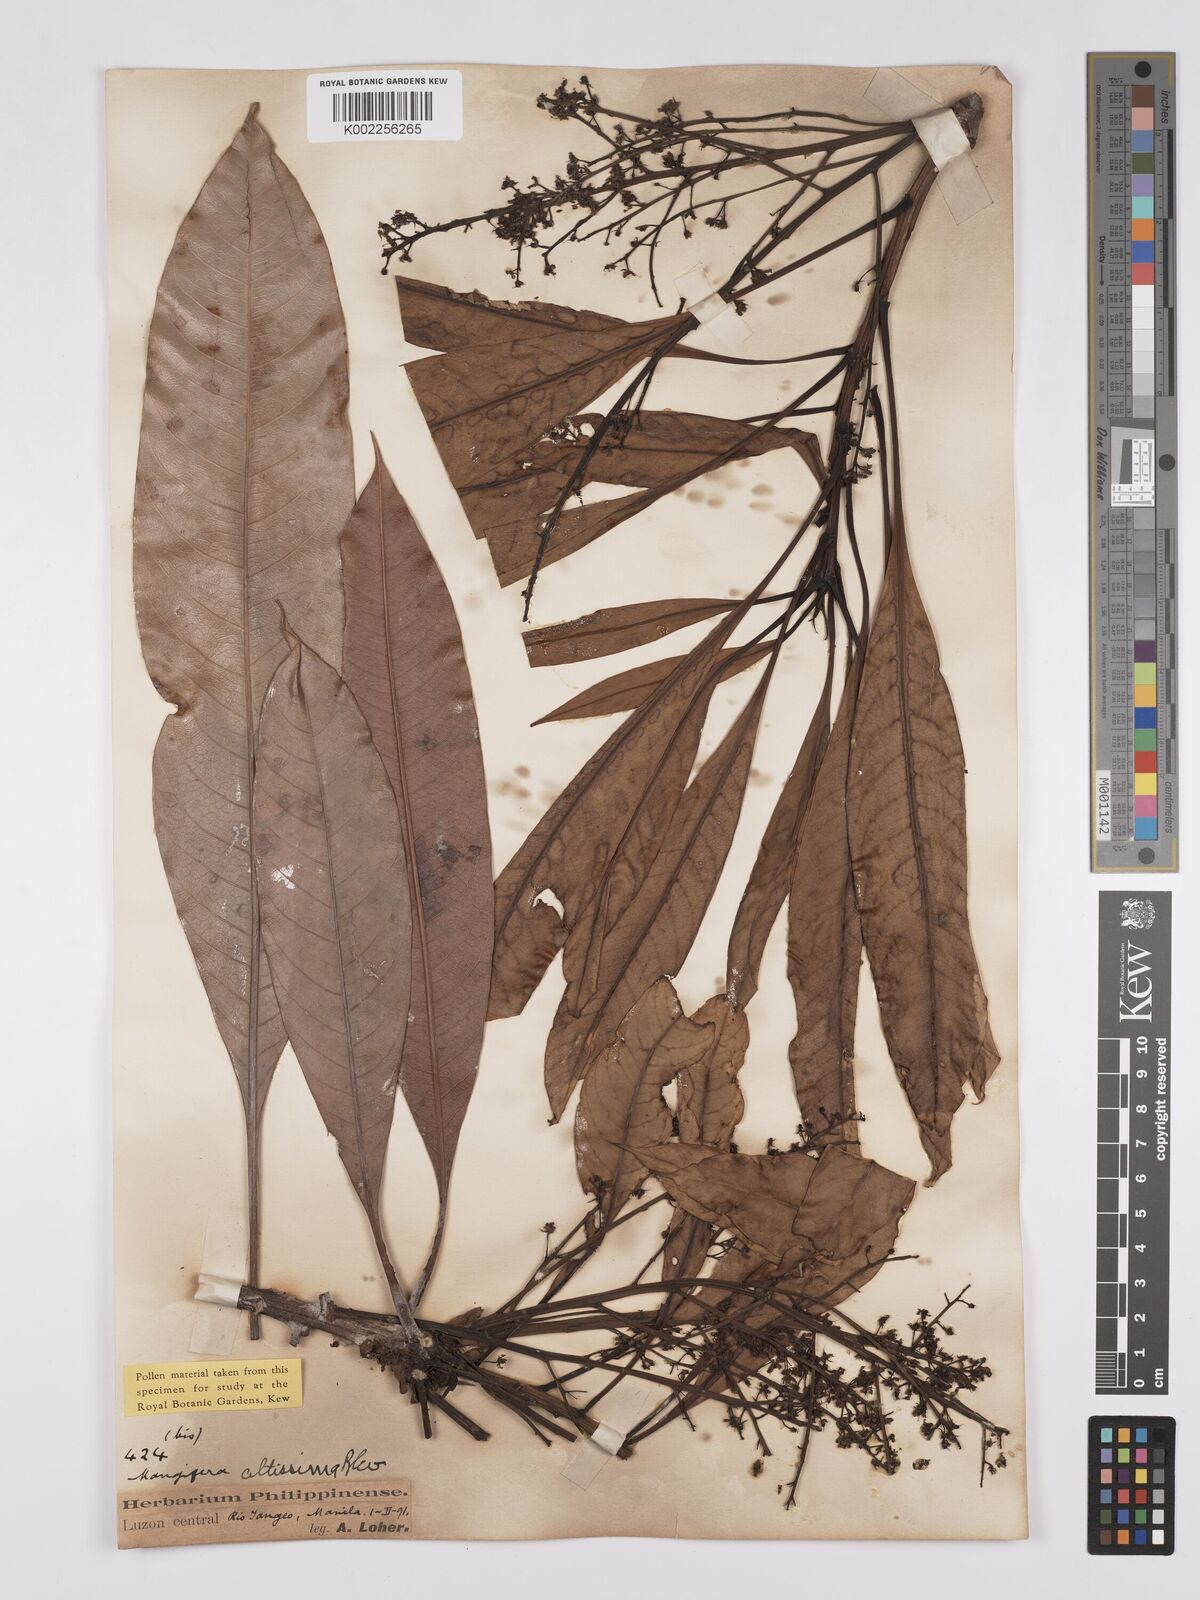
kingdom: Plantae
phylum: Tracheophyta
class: Magnoliopsida
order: Sapindales
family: Anacardiaceae
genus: Mangifera
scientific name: Mangifera altissima
